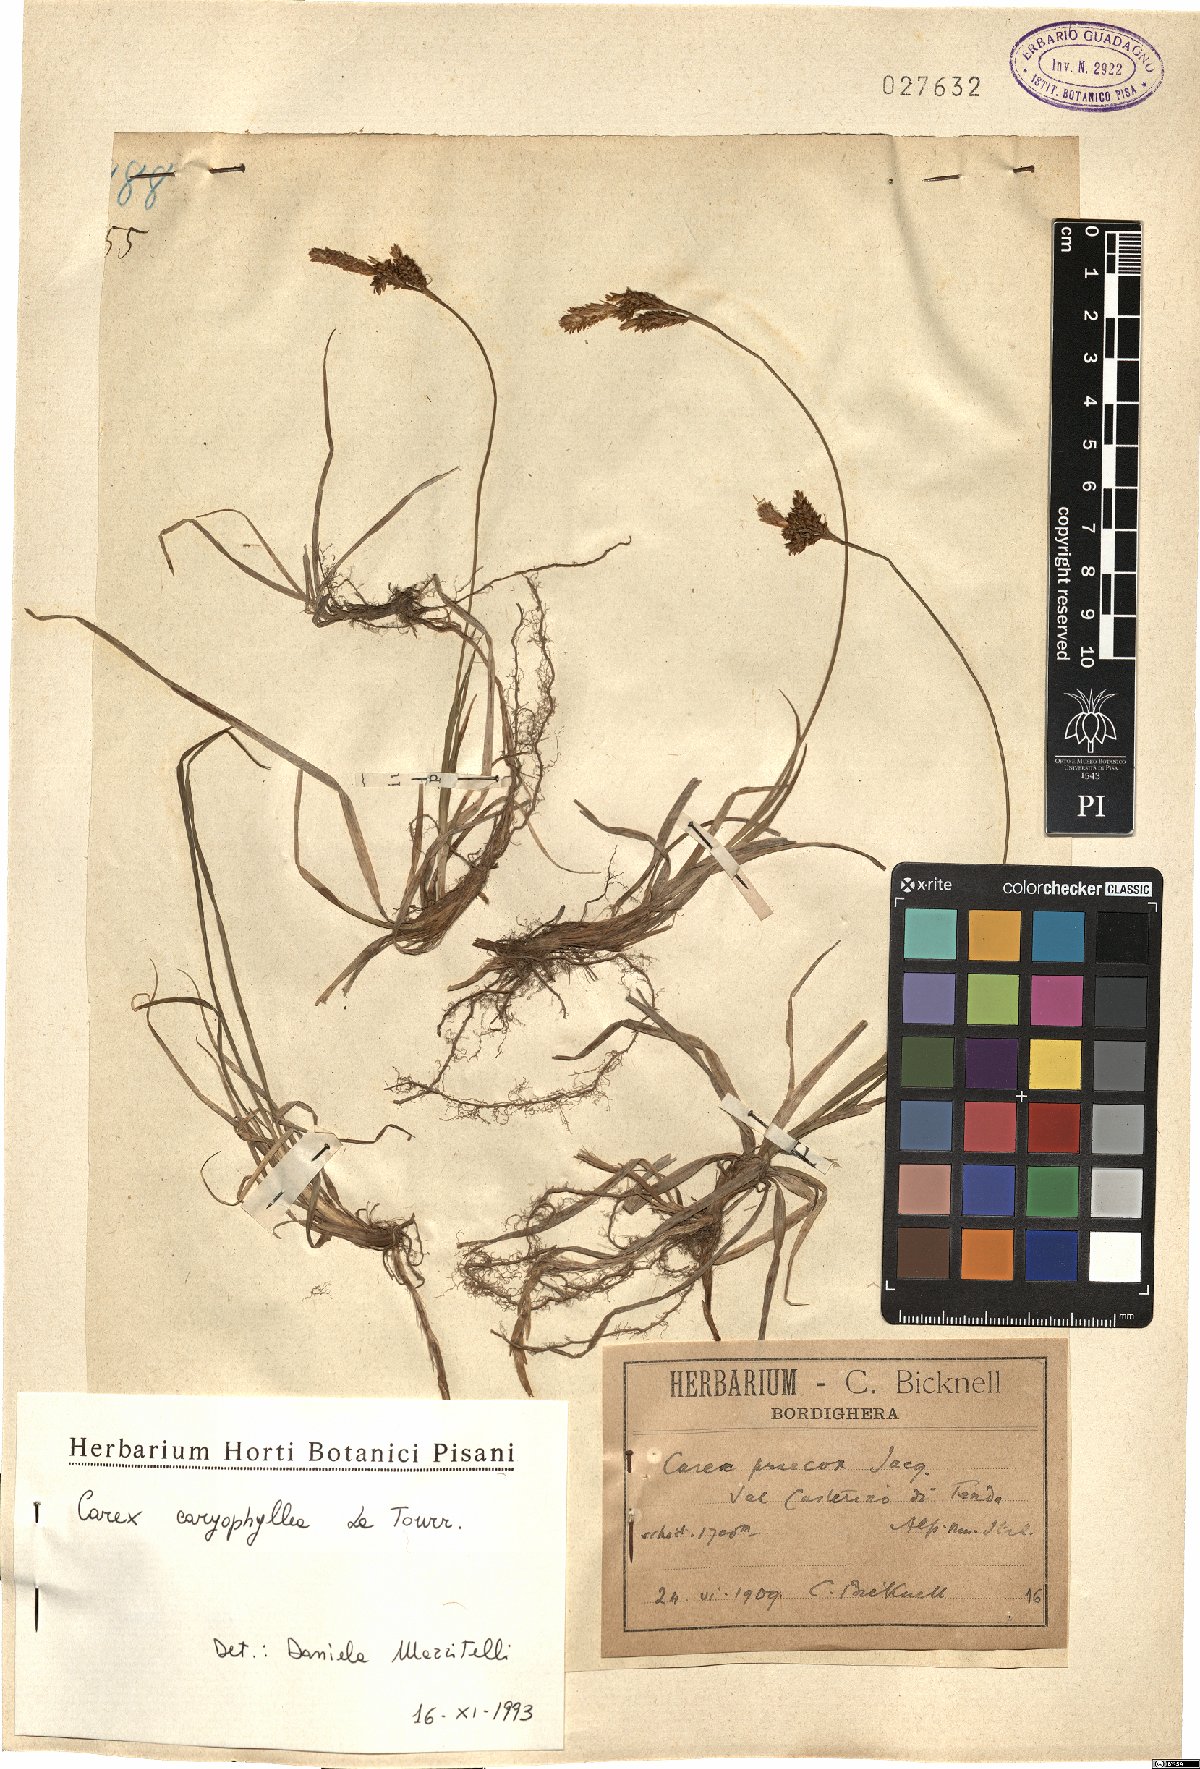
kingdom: Plantae
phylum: Tracheophyta
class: Liliopsida
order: Poales
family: Cyperaceae
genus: Carex
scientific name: Carex caryophyllea
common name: Spring sedge
